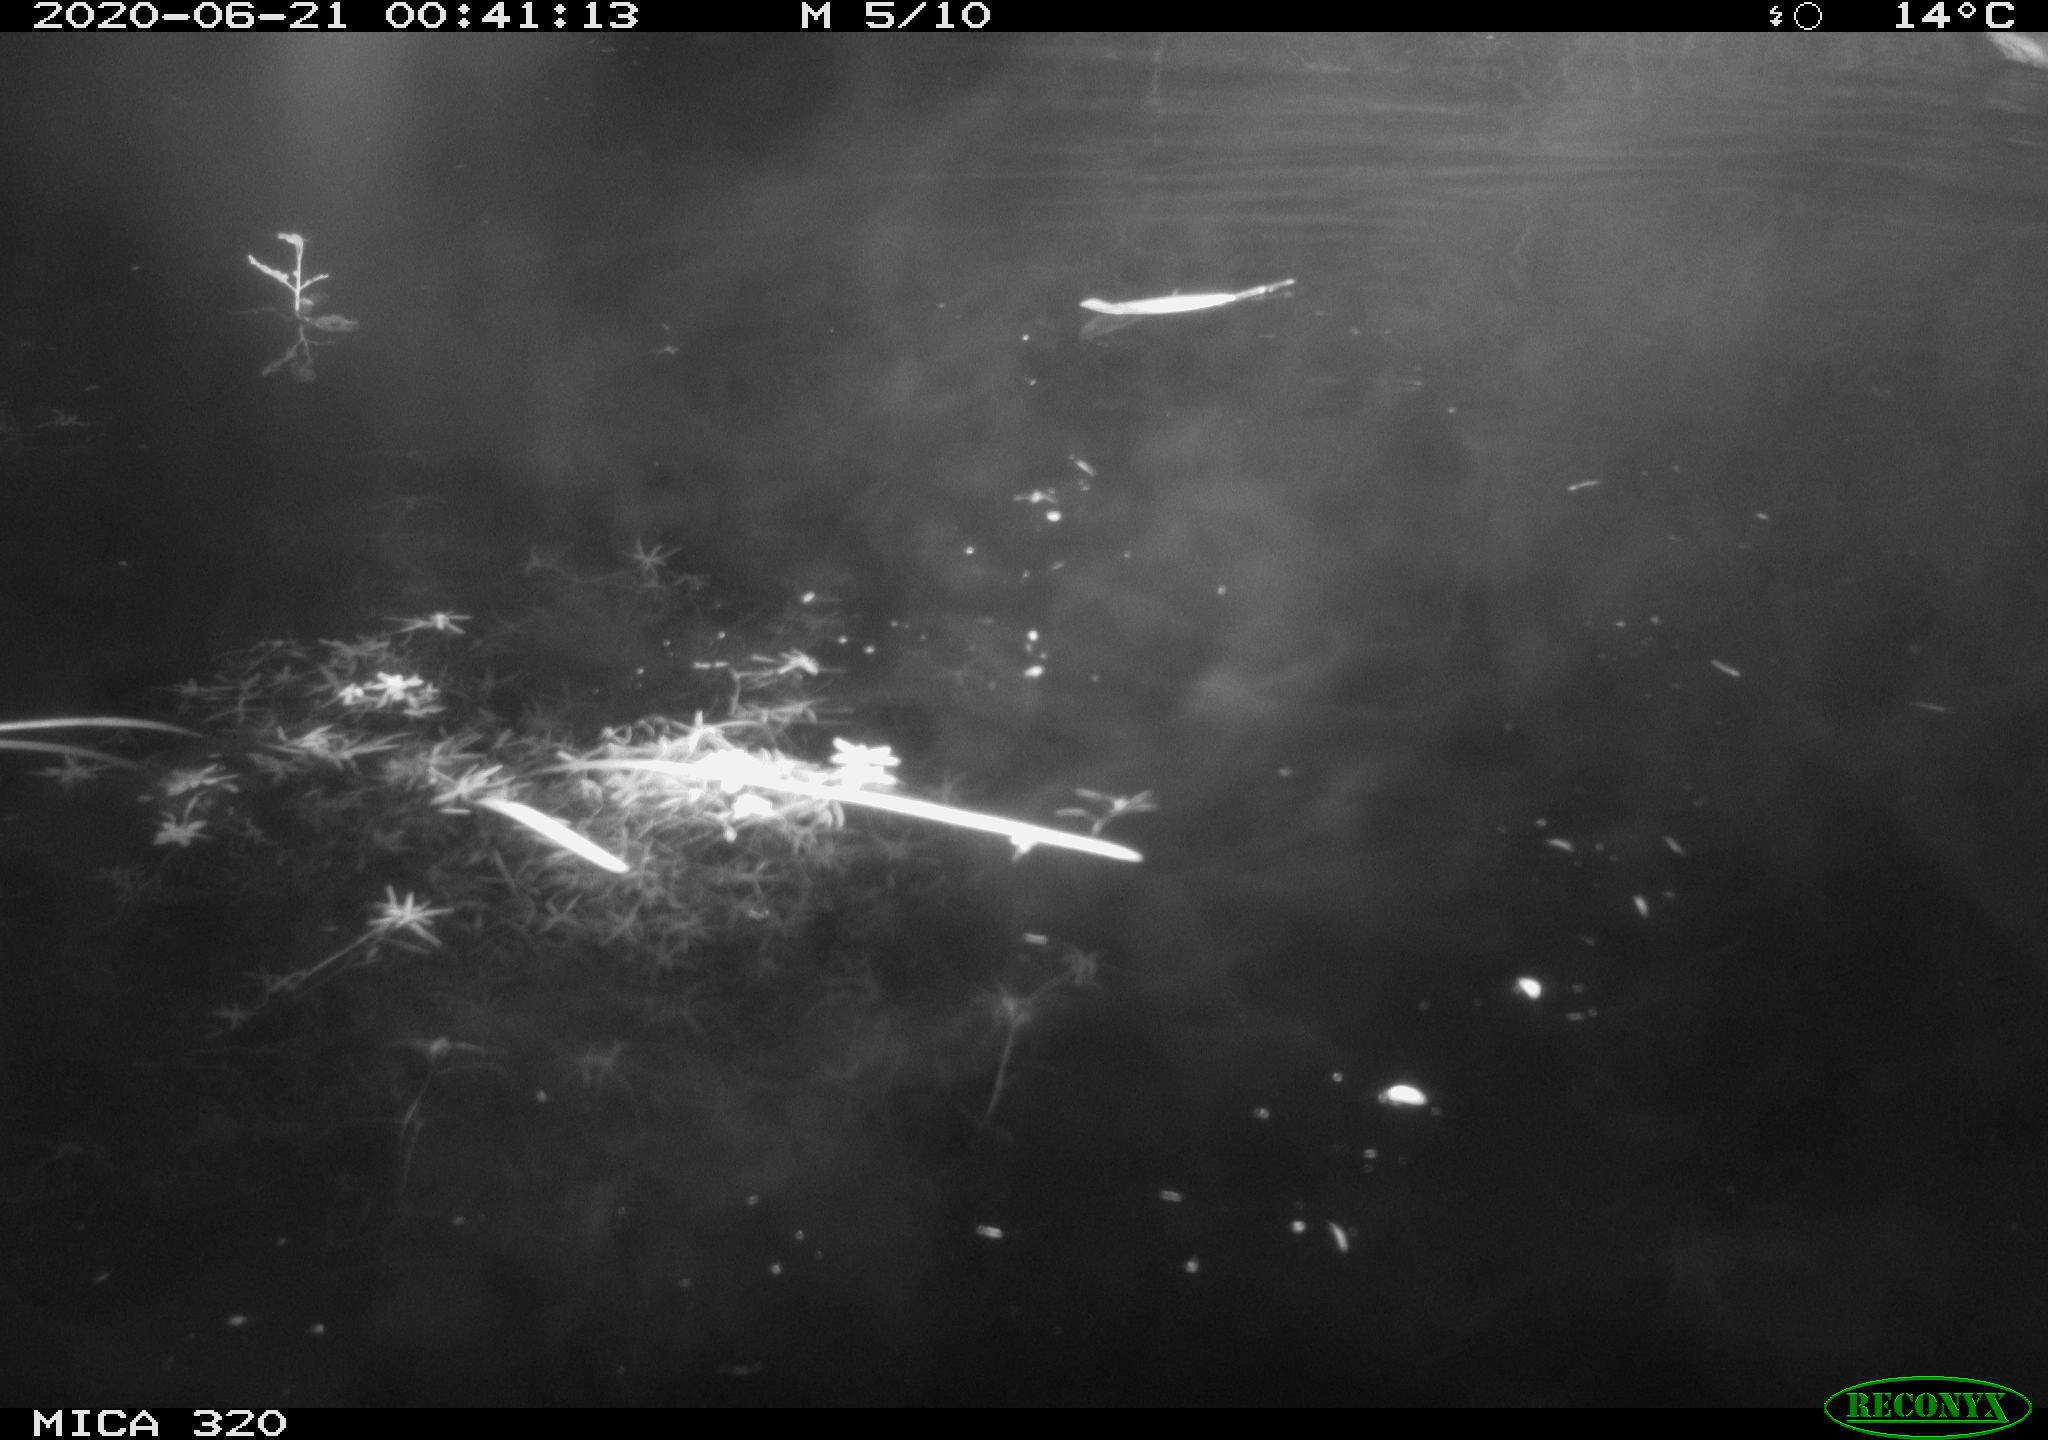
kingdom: Animalia
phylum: Chordata
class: Aves
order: Anseriformes
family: Anatidae
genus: Anas
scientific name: Anas platyrhynchos
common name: Mallard
